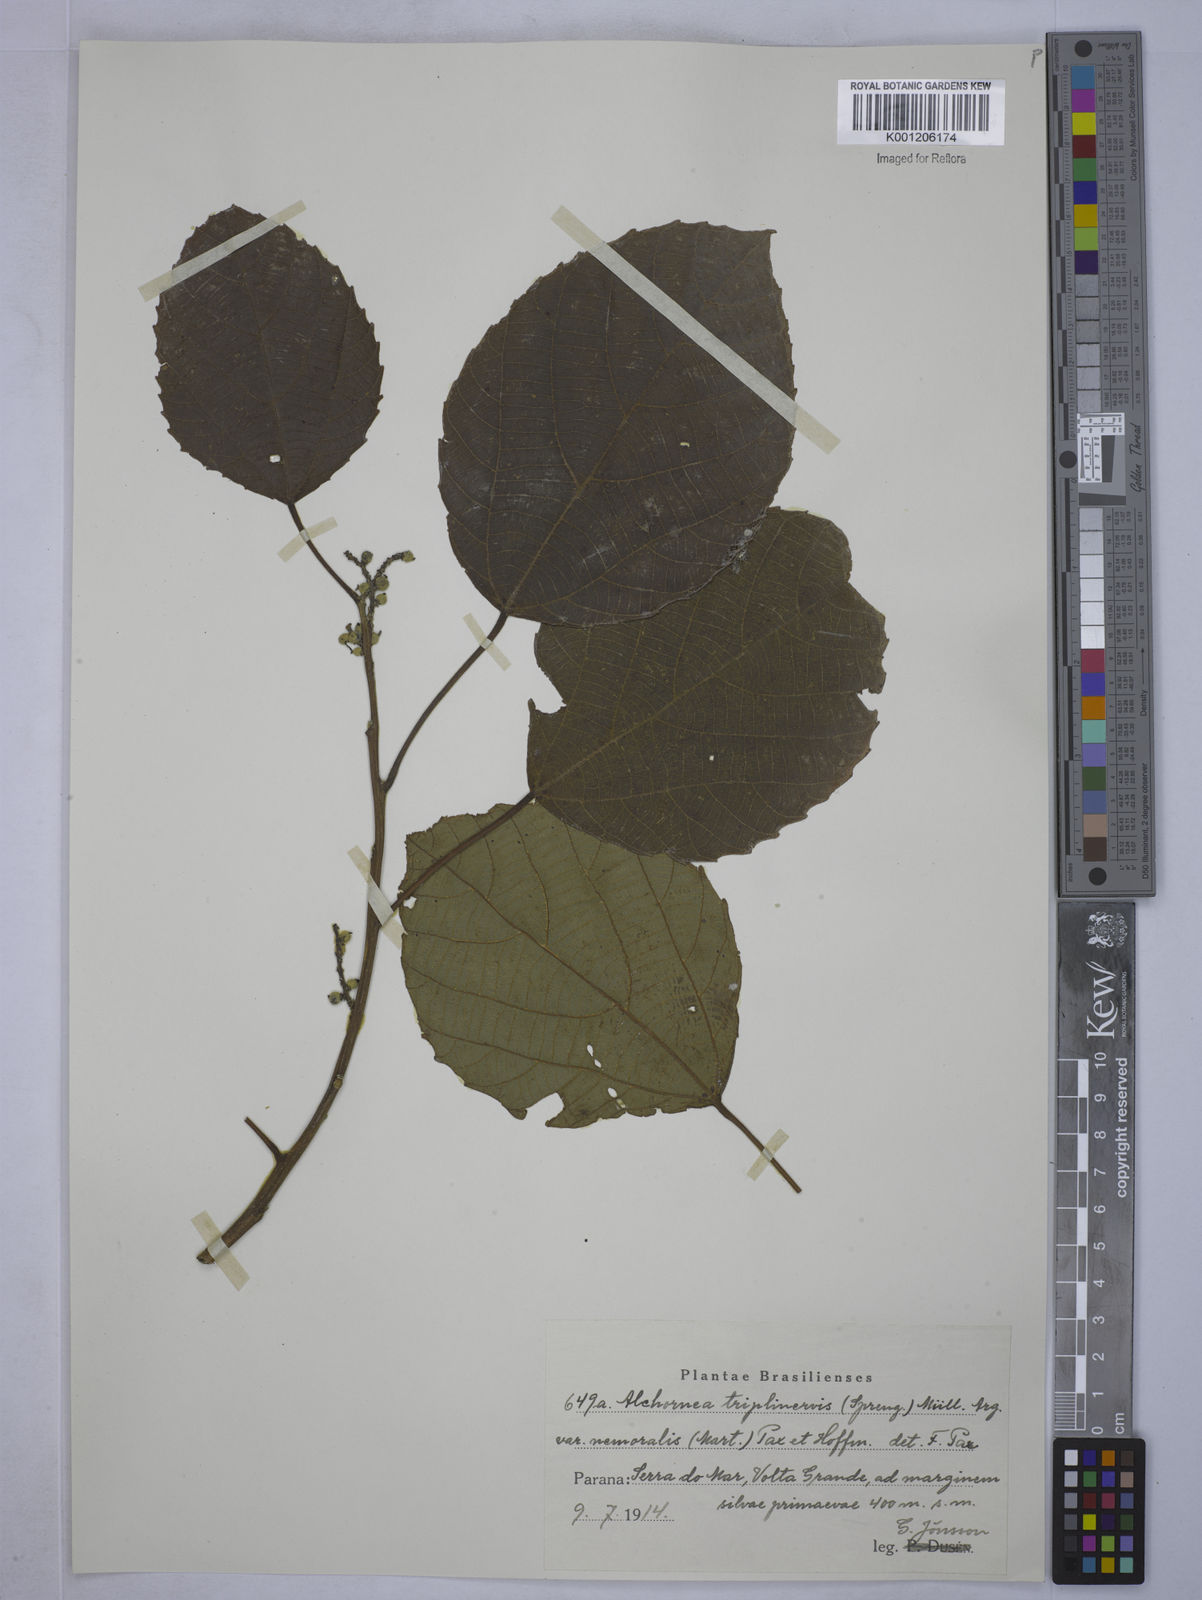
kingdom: Plantae
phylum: Tracheophyta
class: Magnoliopsida
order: Malpighiales
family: Euphorbiaceae
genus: Alchornea
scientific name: Alchornea triplinervia
